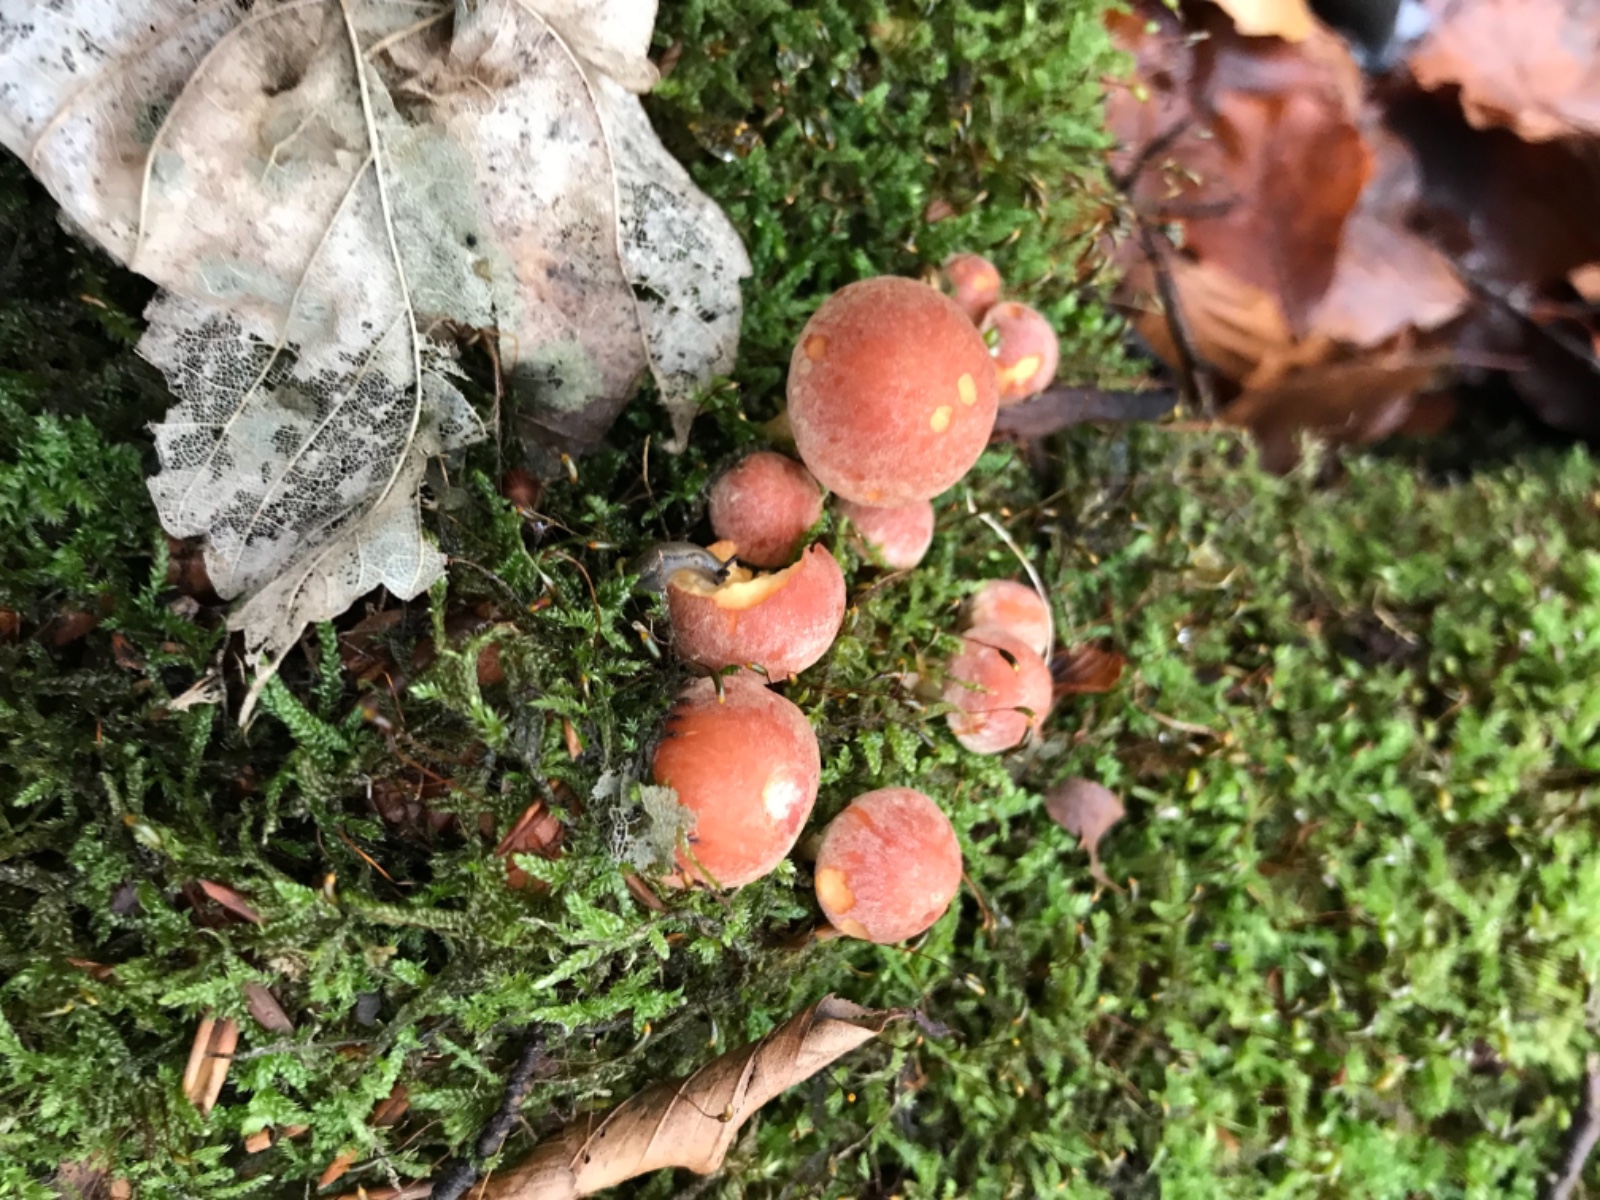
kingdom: Fungi
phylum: Basidiomycota
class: Agaricomycetes
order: Agaricales
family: Strophariaceae
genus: Hypholoma
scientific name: Hypholoma lateritium
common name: teglrød svovlhat
